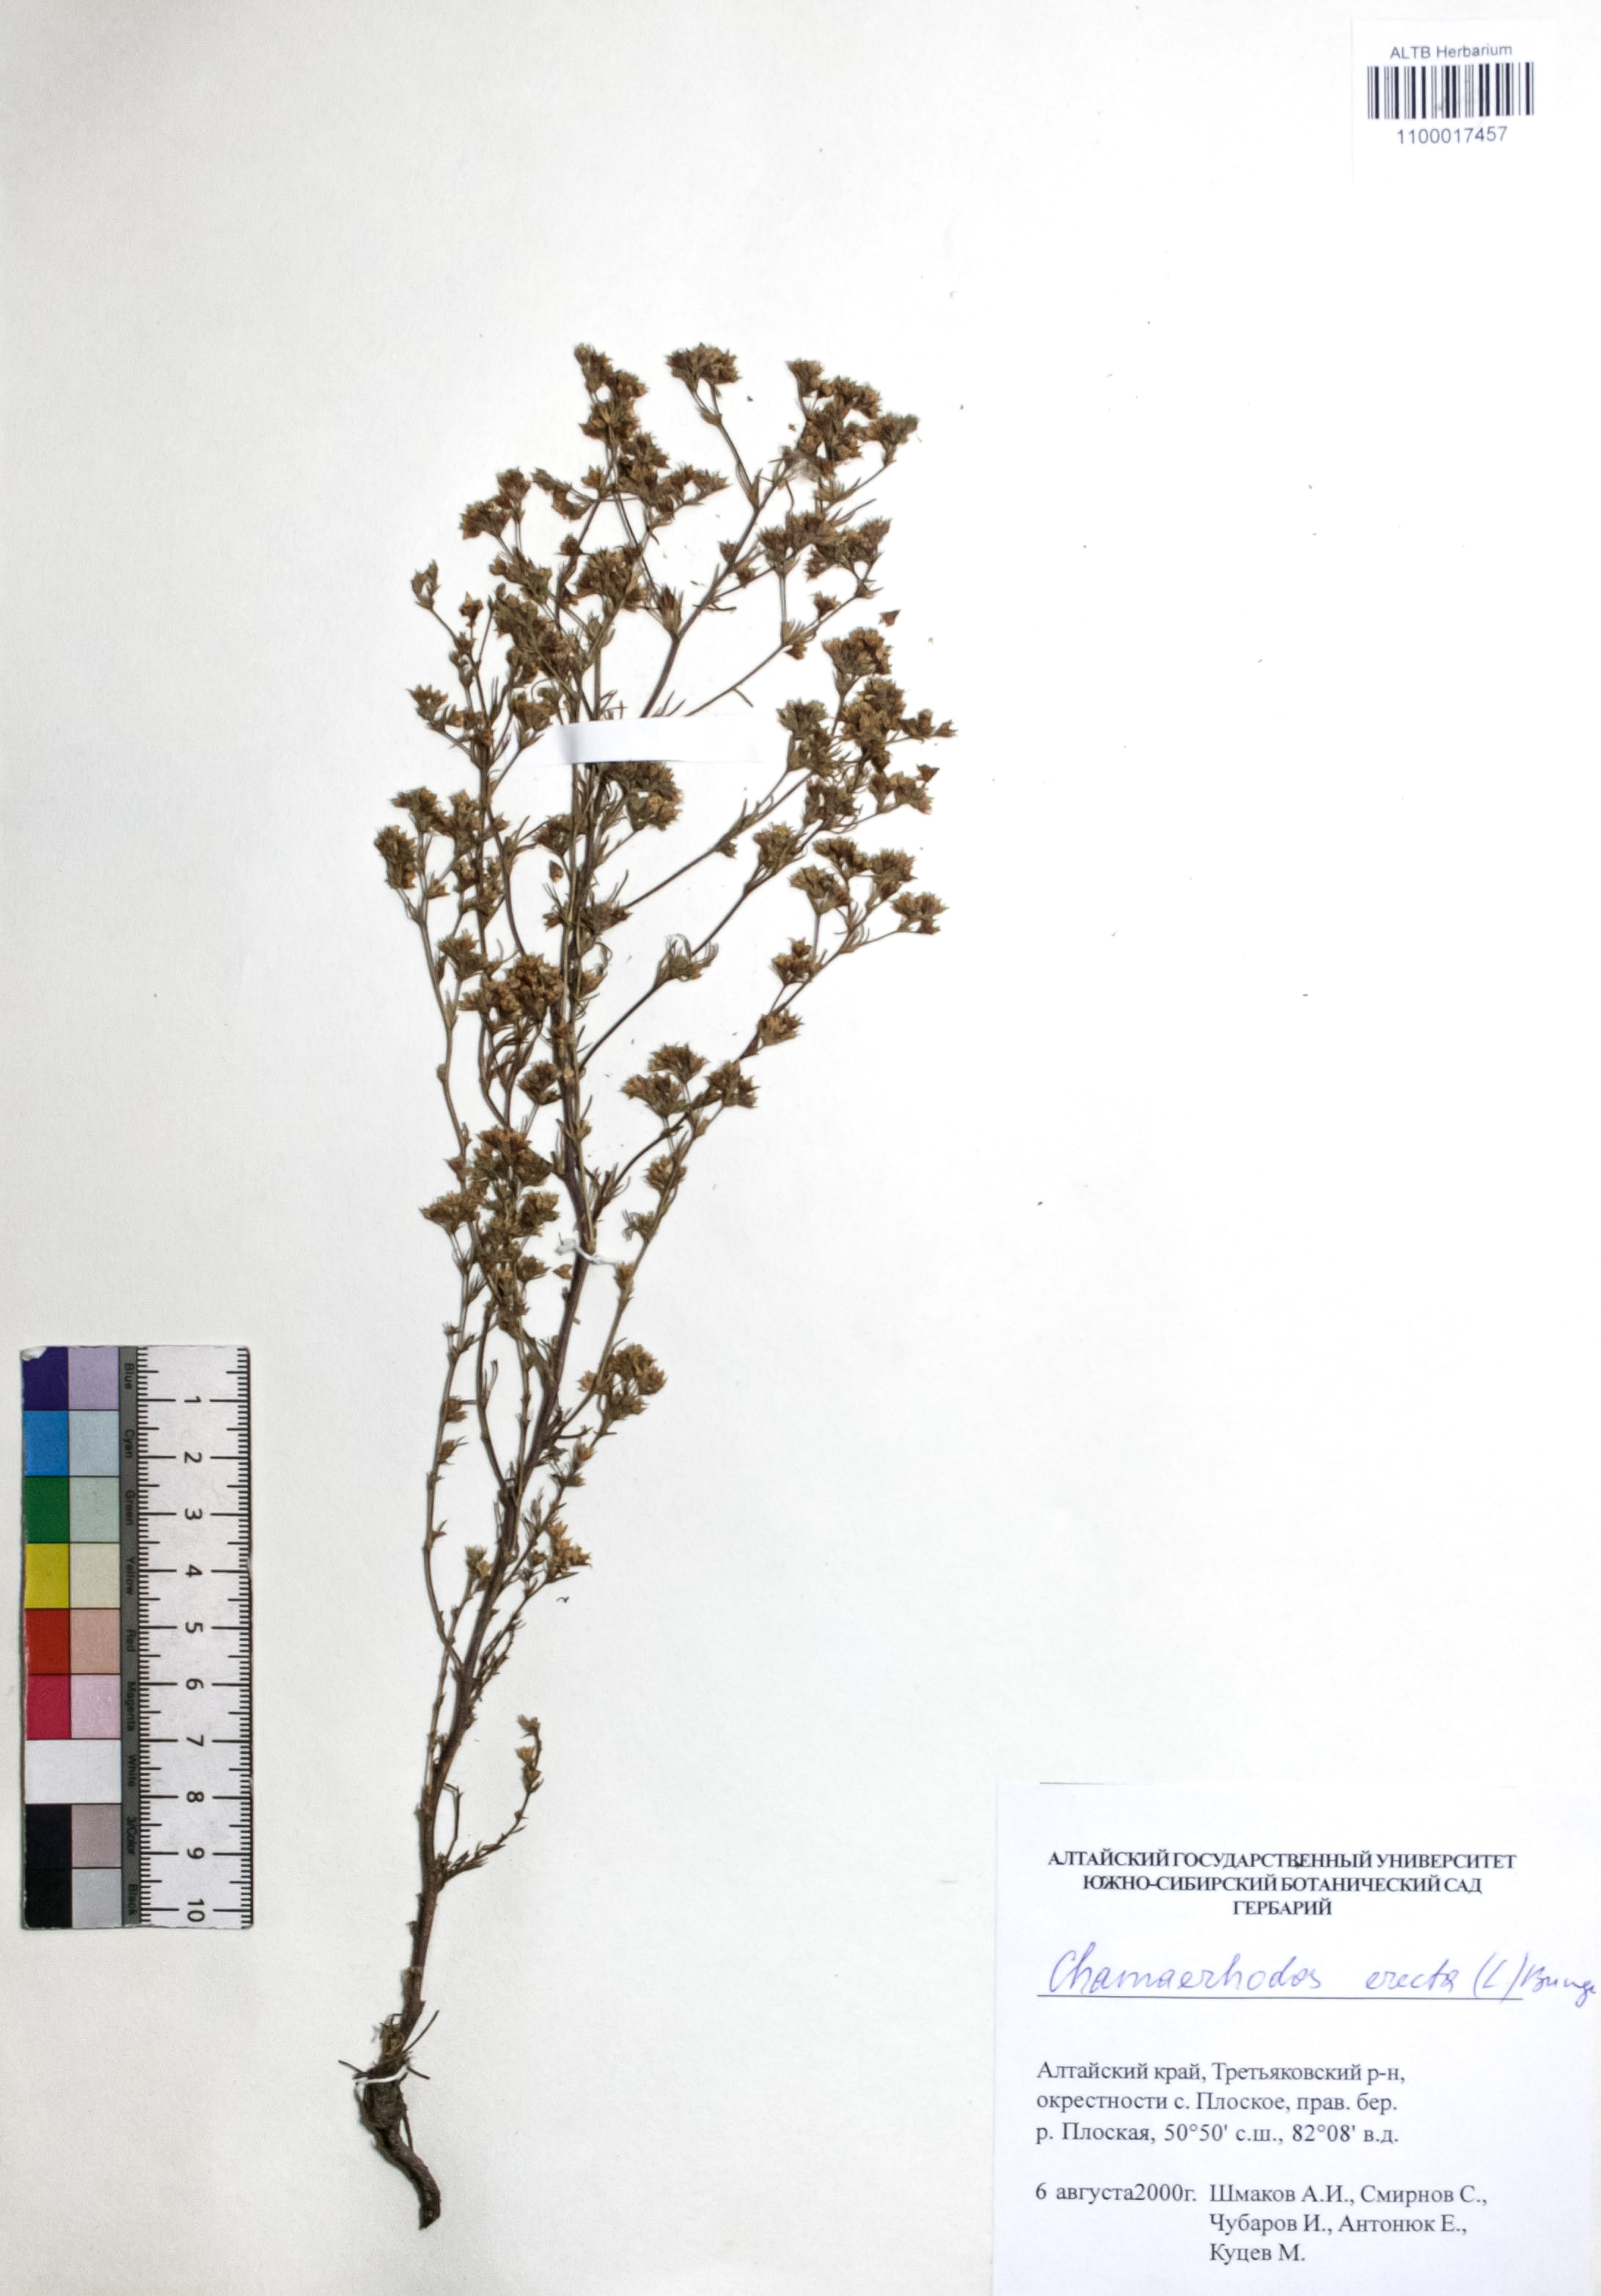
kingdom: Plantae
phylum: Tracheophyta
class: Magnoliopsida
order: Rosales
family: Rosaceae
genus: Chamaerhodos
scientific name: Chamaerhodos erecta
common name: American chamaerhodos
